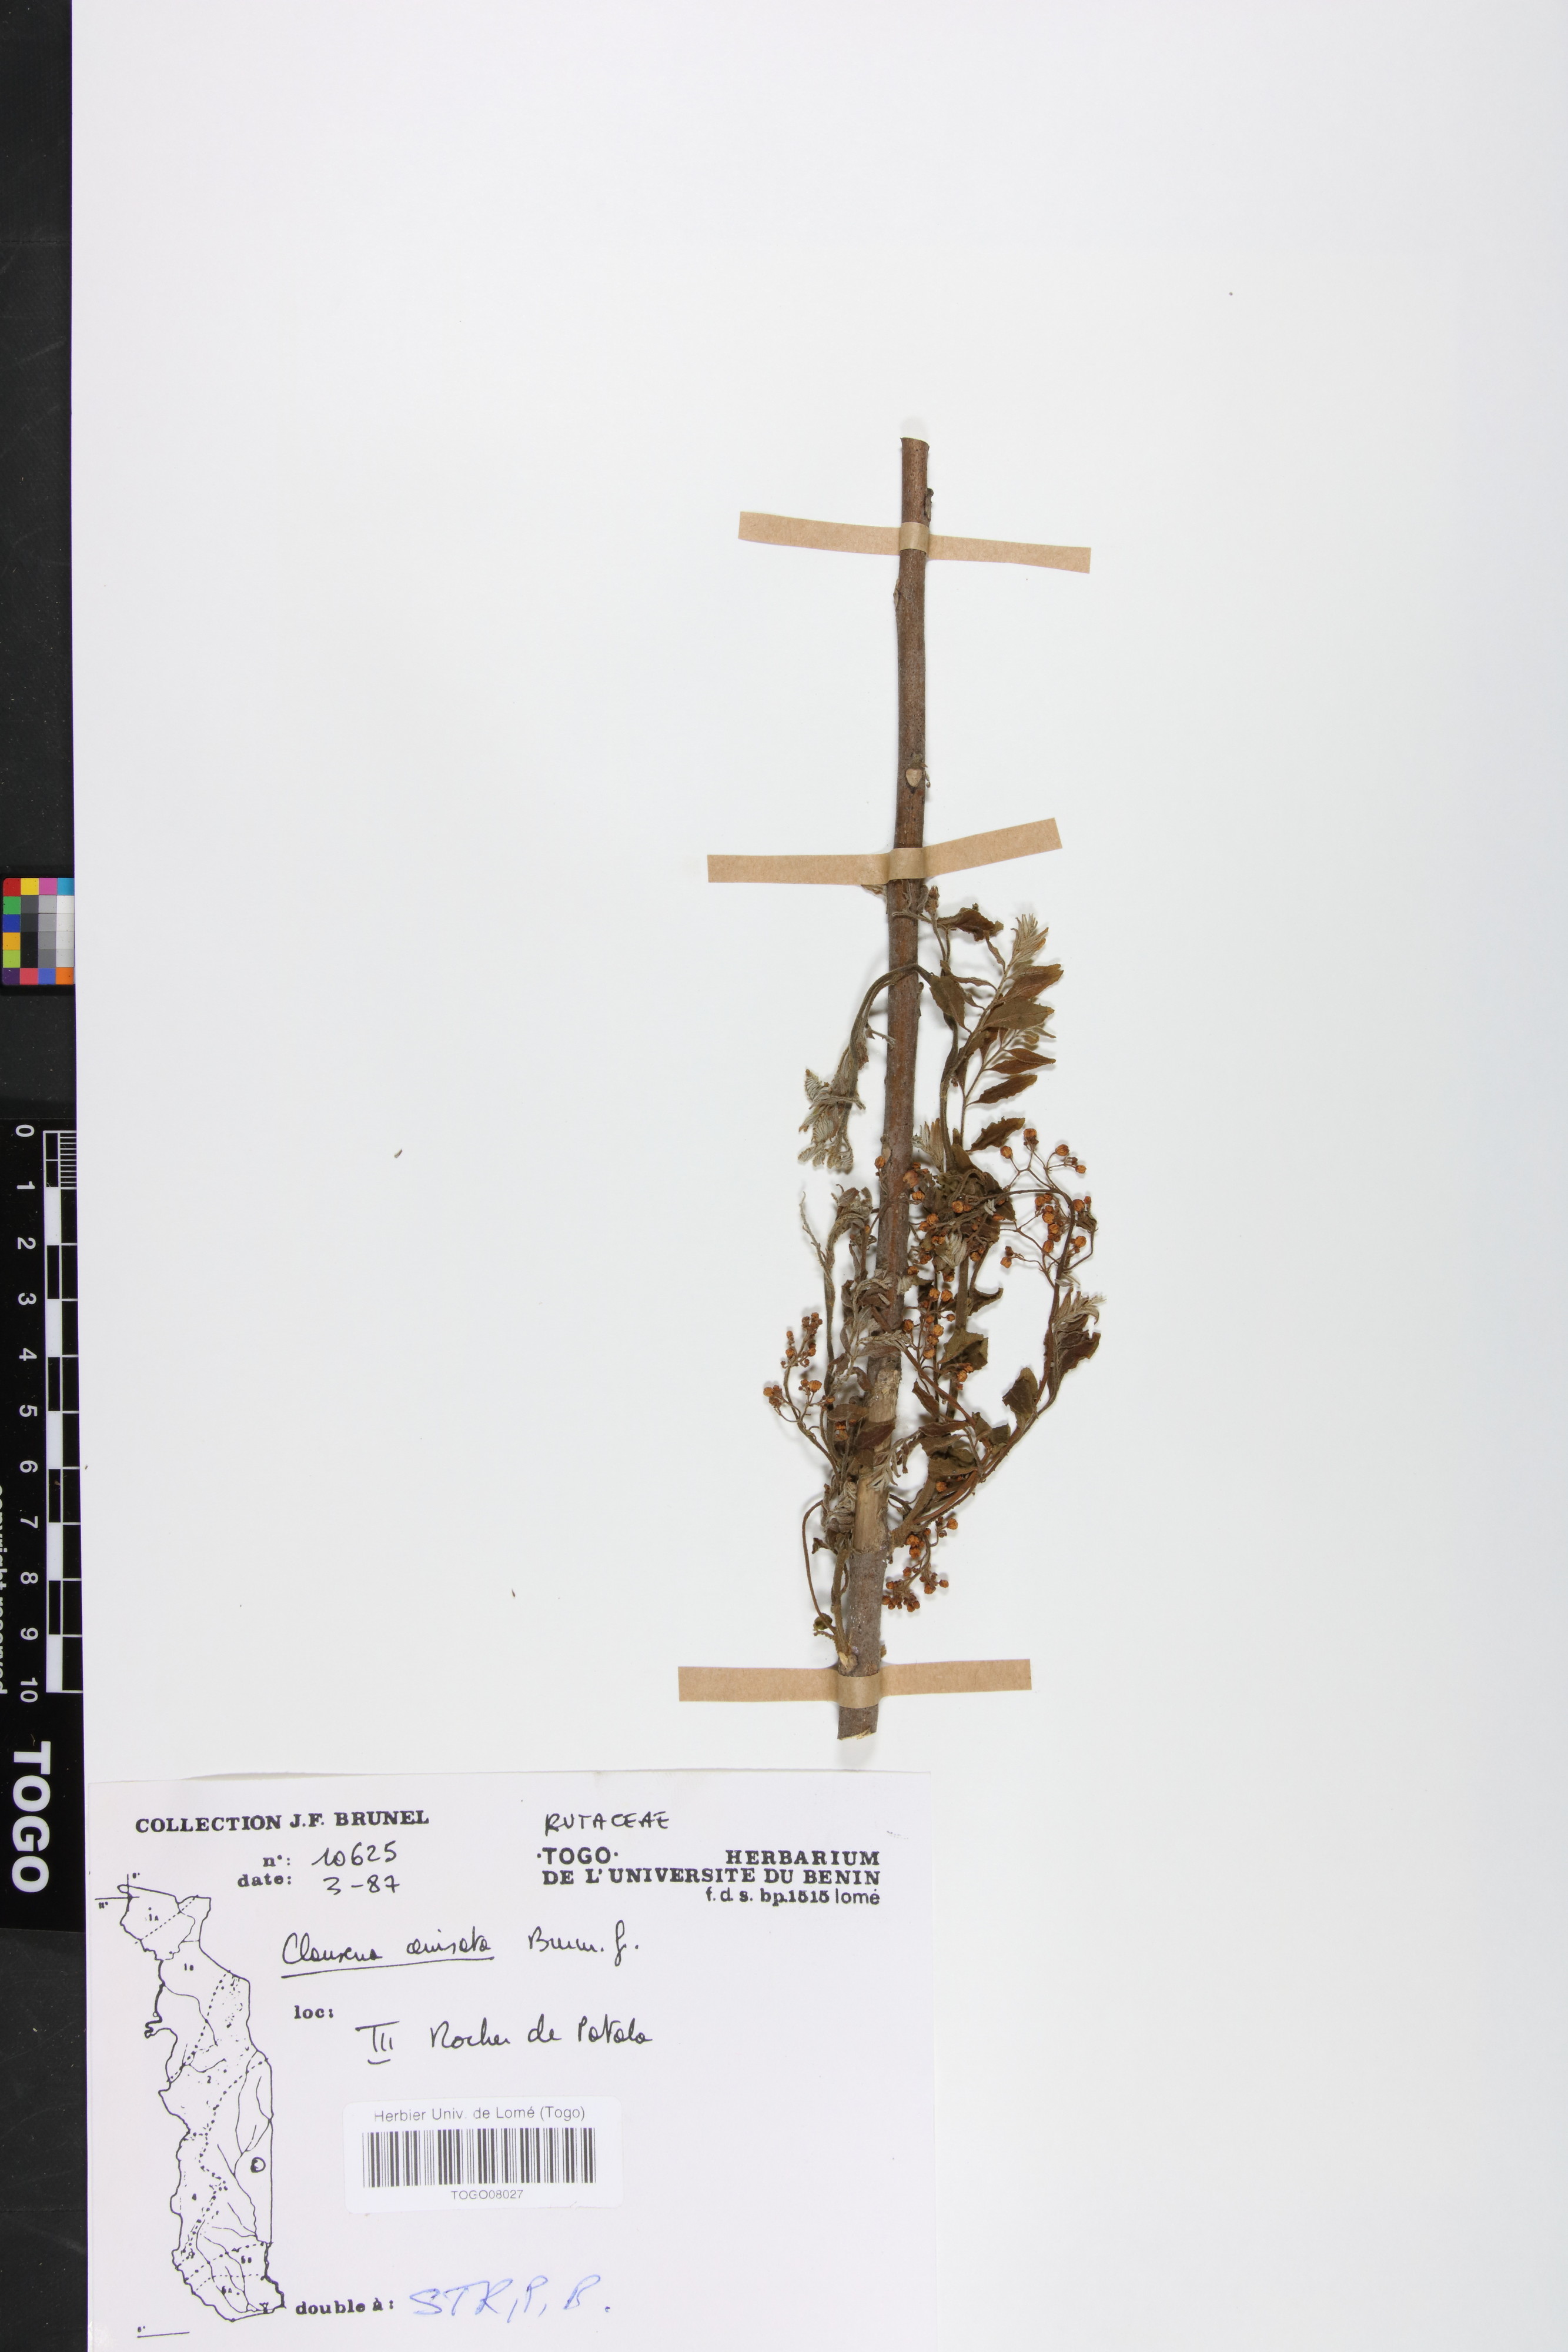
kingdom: Plantae
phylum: Tracheophyta
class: Magnoliopsida
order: Sapindales
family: Rutaceae
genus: Clausena
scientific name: Clausena anisata
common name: Horsewood
